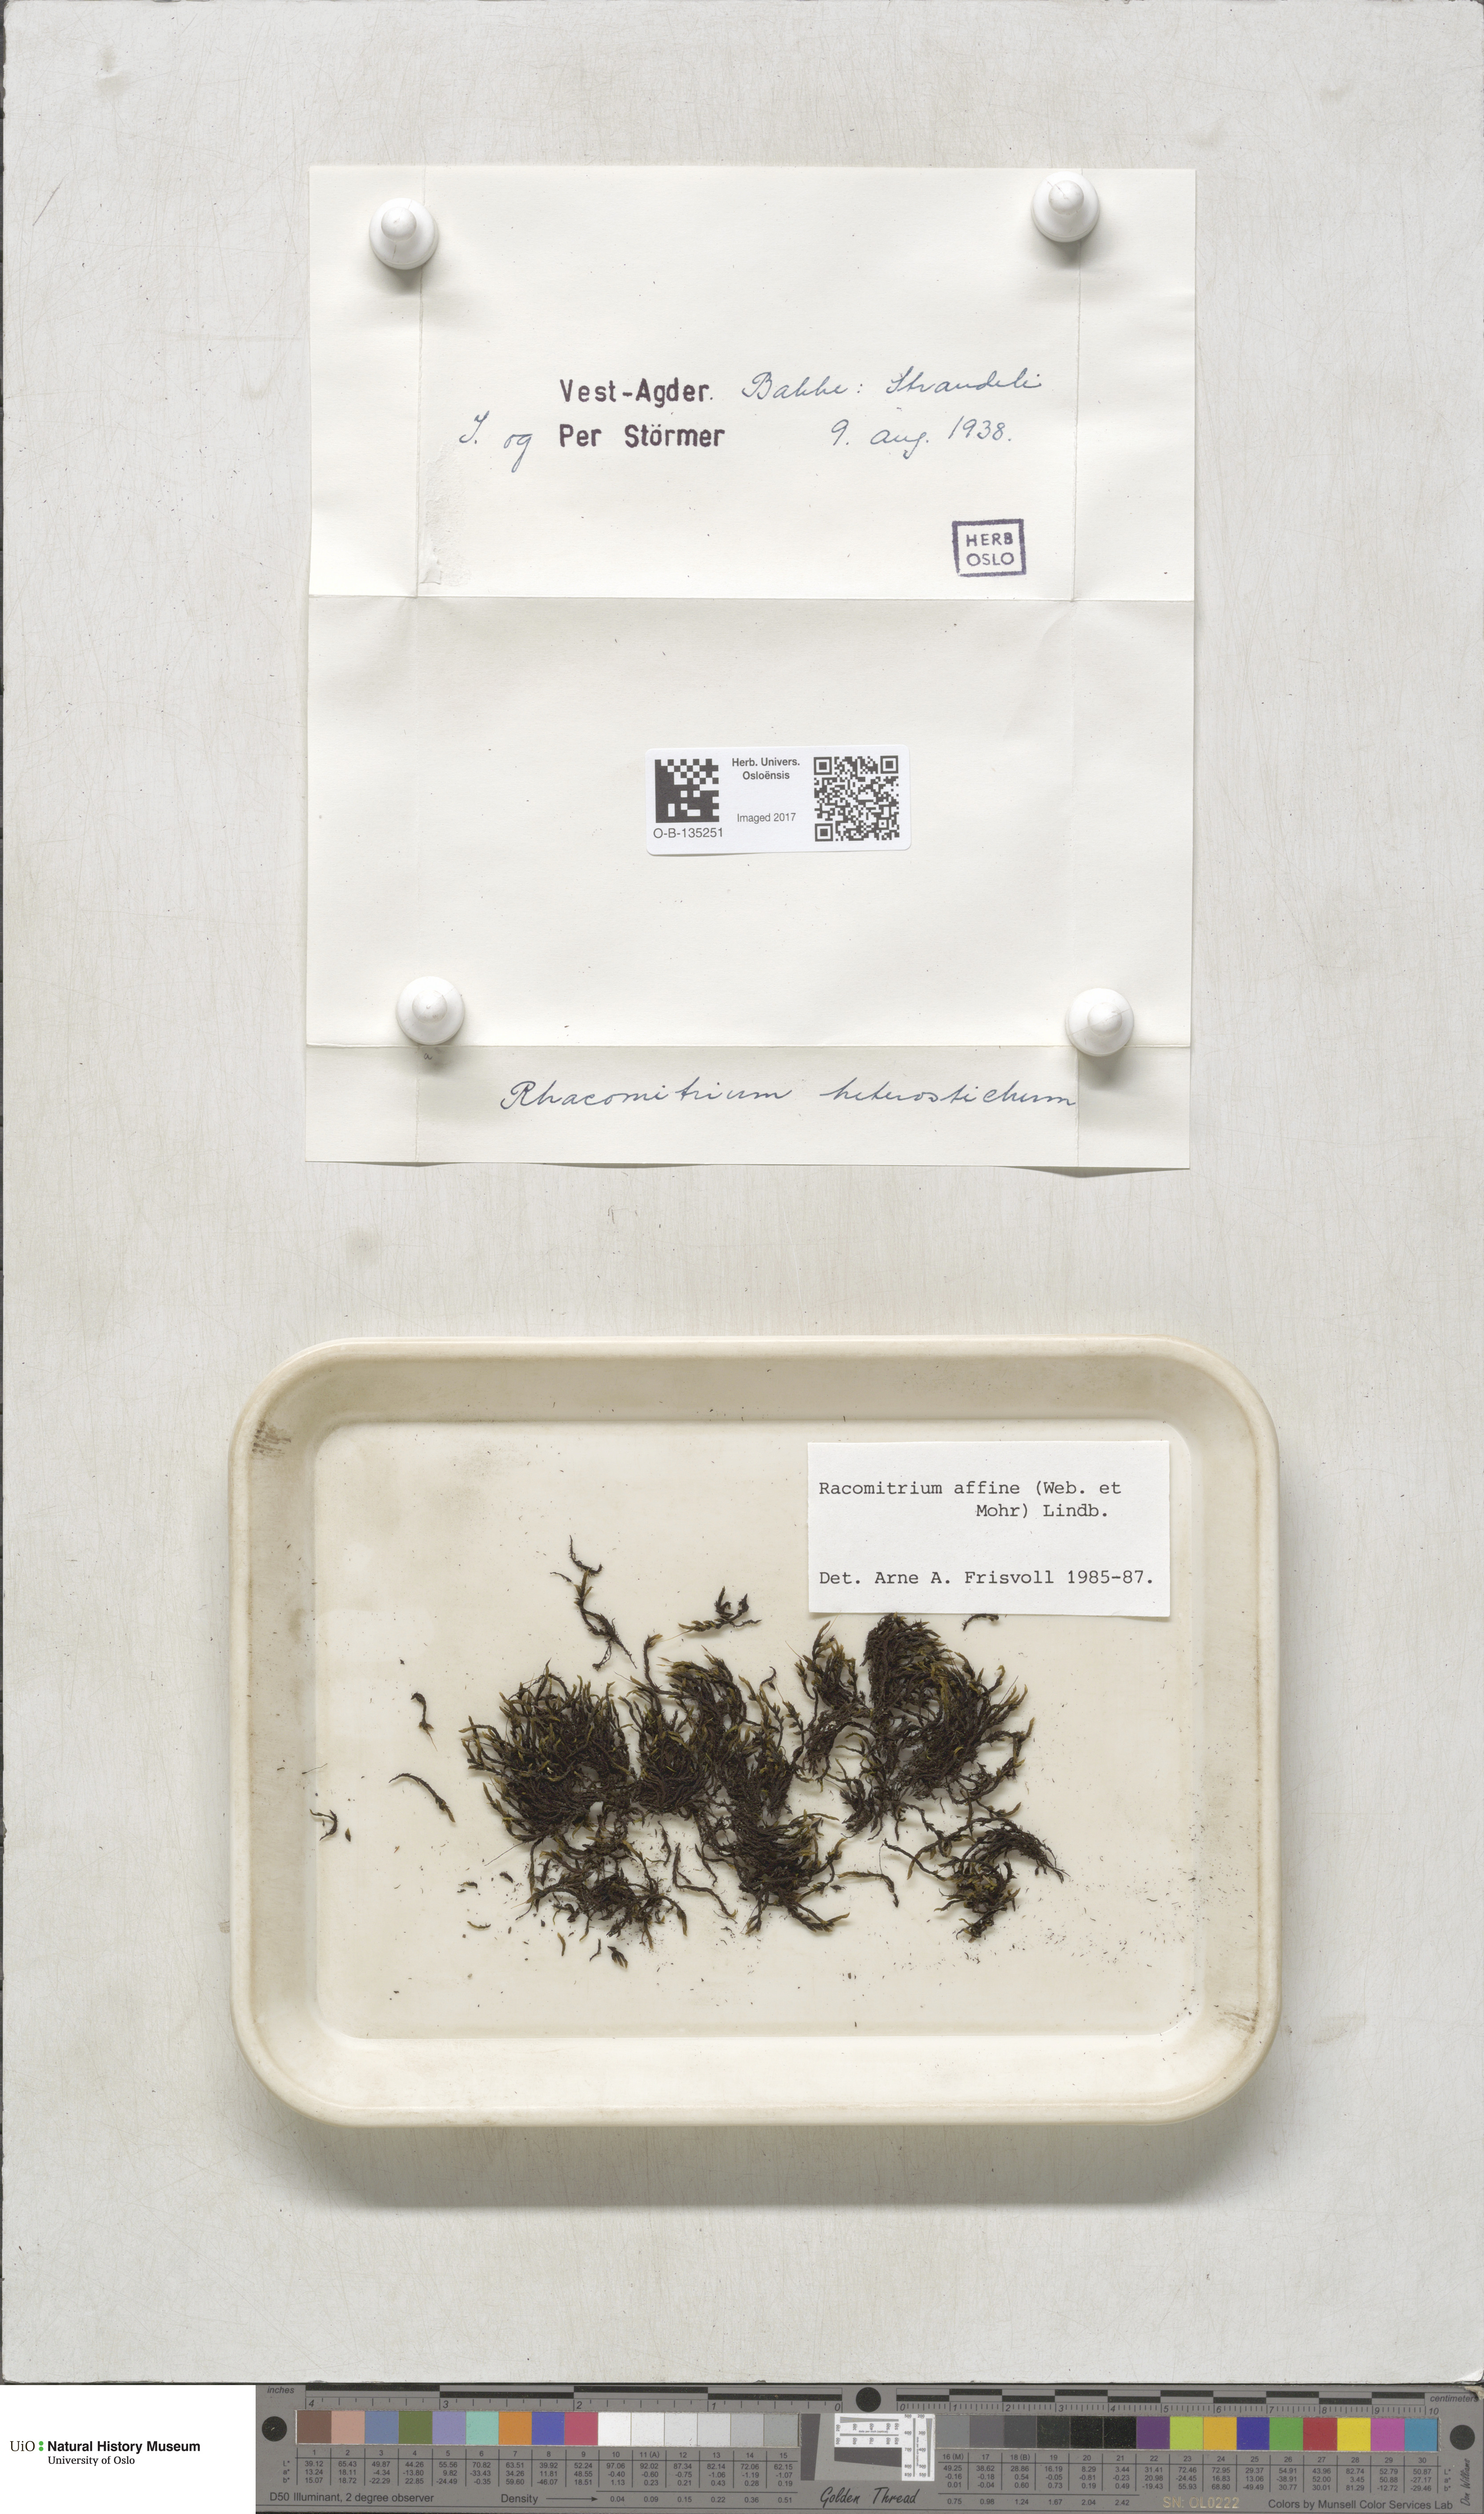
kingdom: Plantae
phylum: Bryophyta
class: Bryopsida
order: Grimmiales
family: Grimmiaceae
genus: Bucklandiella
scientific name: Bucklandiella affinis
